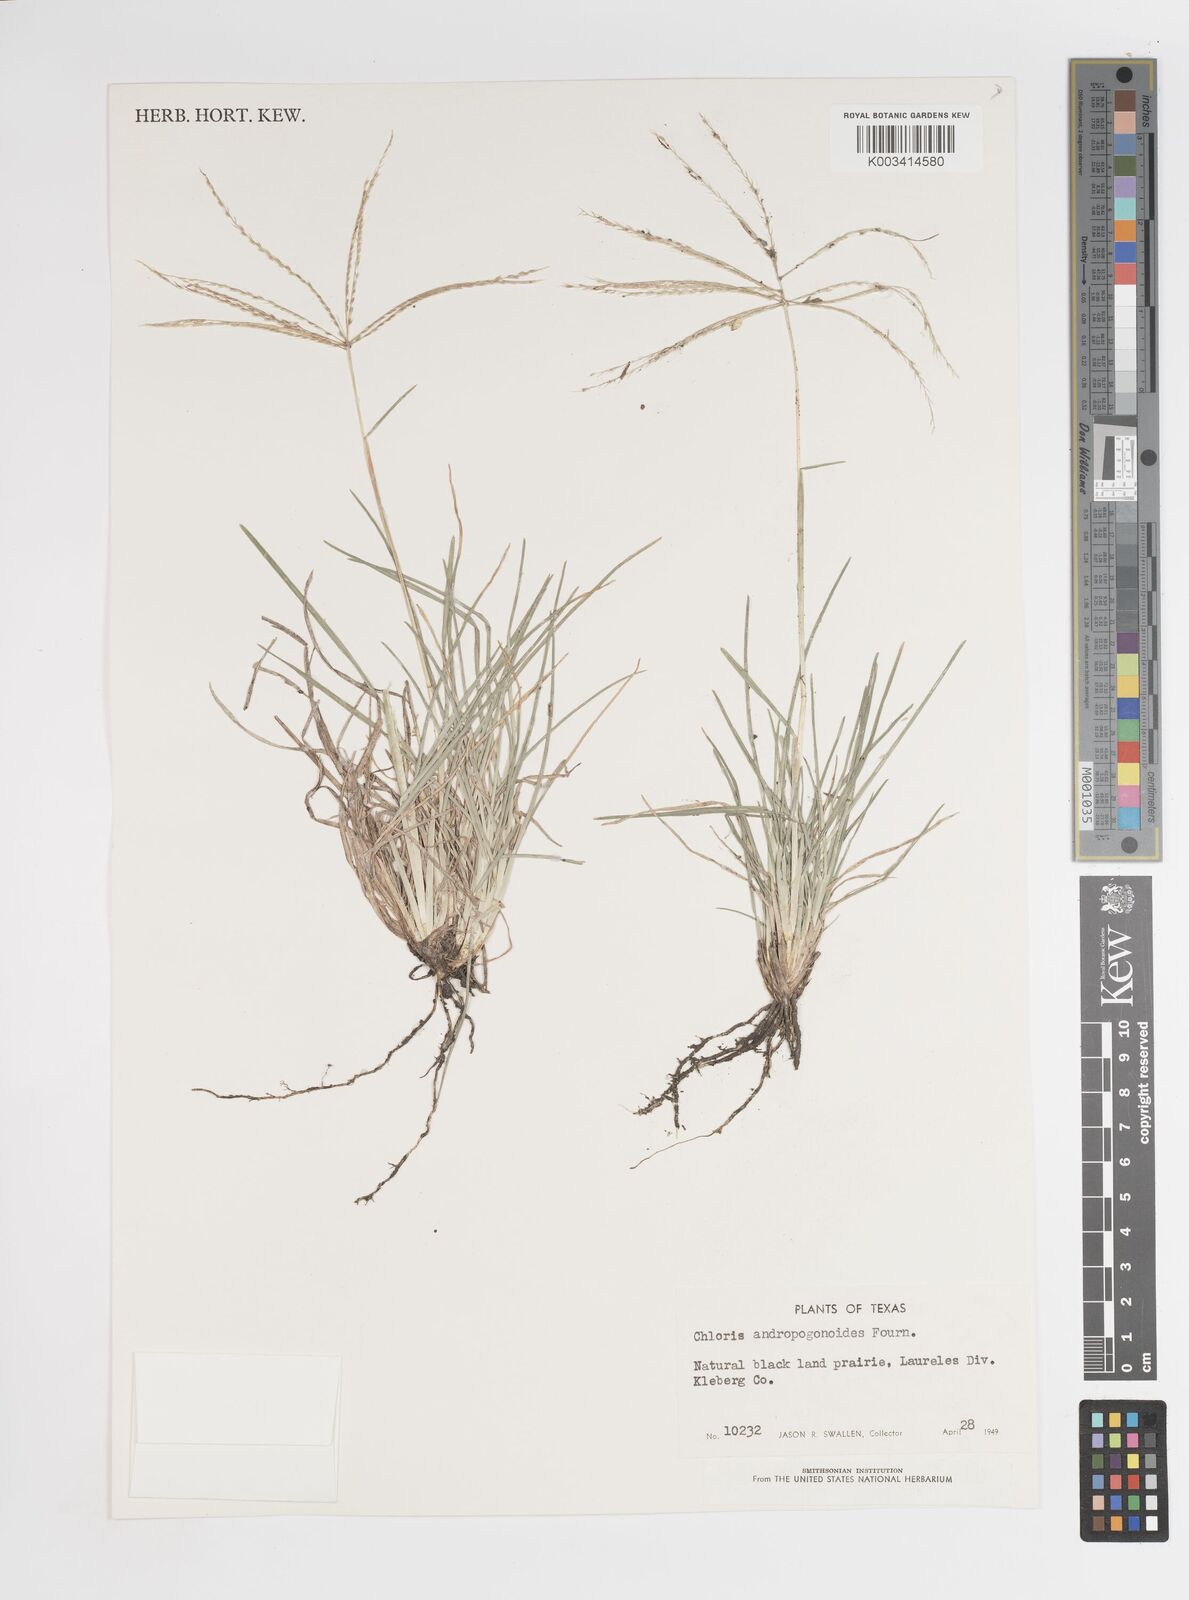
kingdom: Plantae
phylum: Tracheophyta
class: Liliopsida
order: Poales
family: Poaceae
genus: Chloris
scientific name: Chloris andropogonoides
